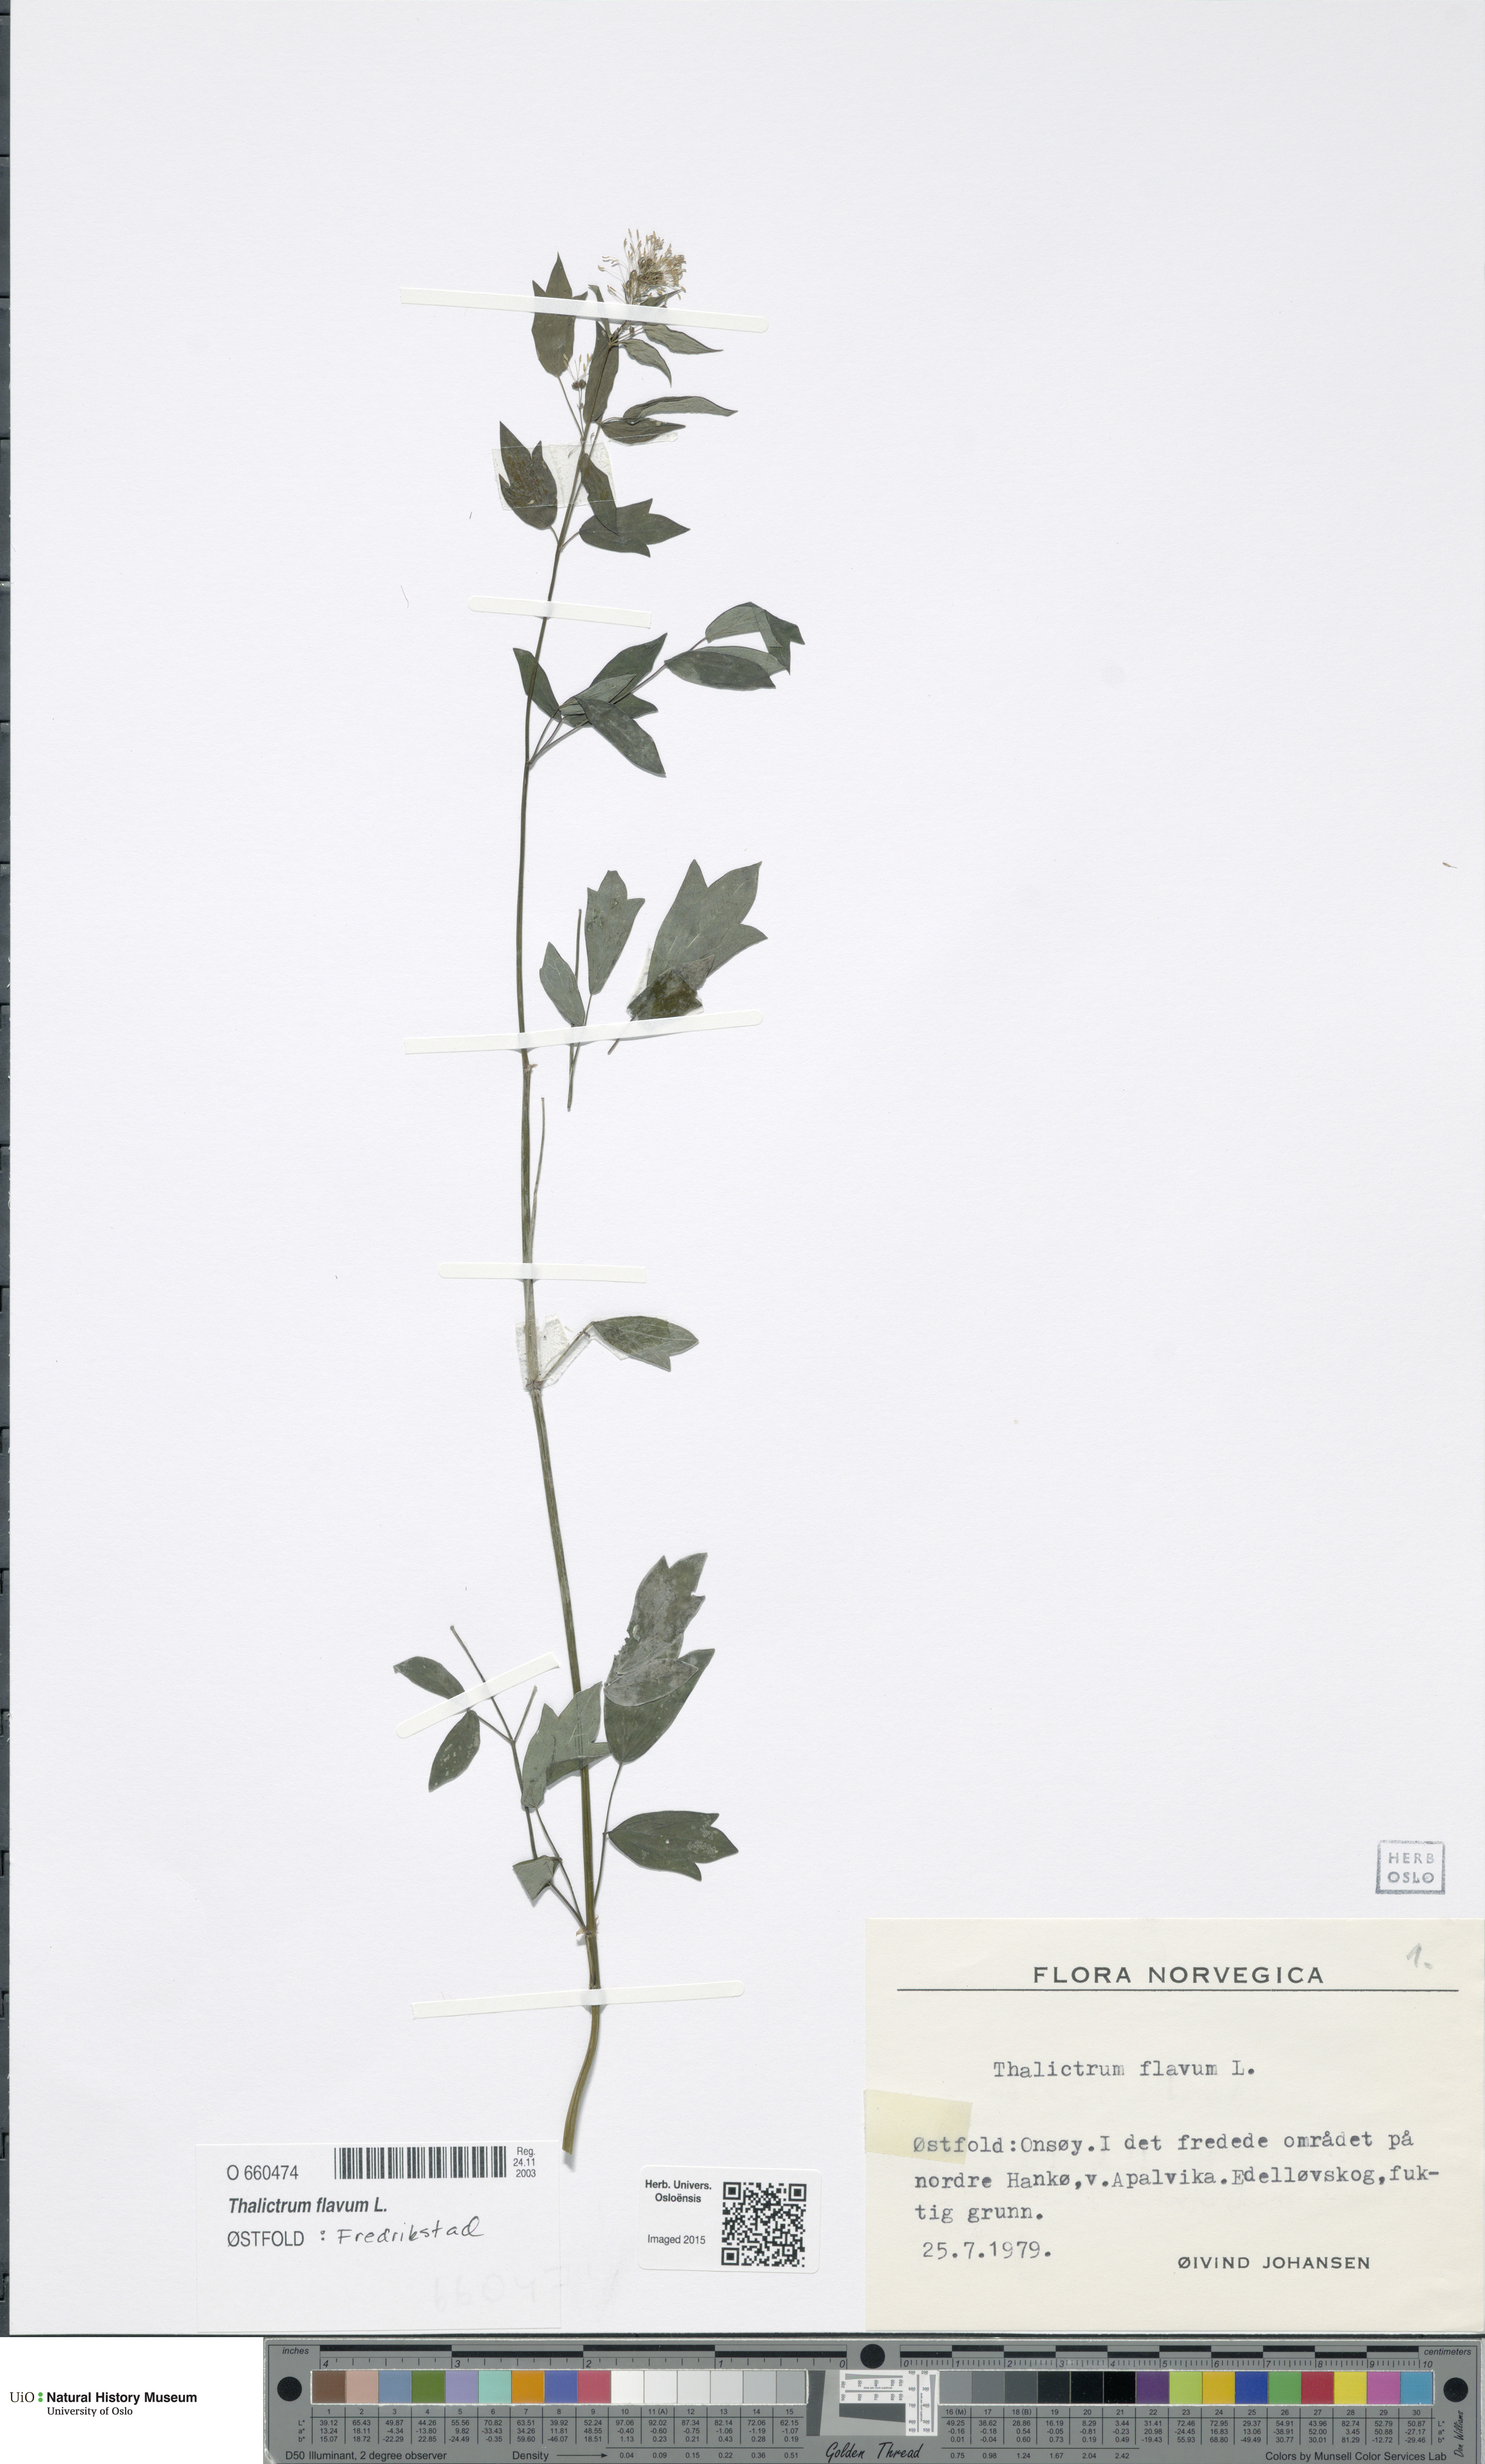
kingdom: Plantae
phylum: Tracheophyta
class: Magnoliopsida
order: Ranunculales
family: Ranunculaceae
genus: Thalictrum
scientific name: Thalictrum flavum
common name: Common meadow-rue
